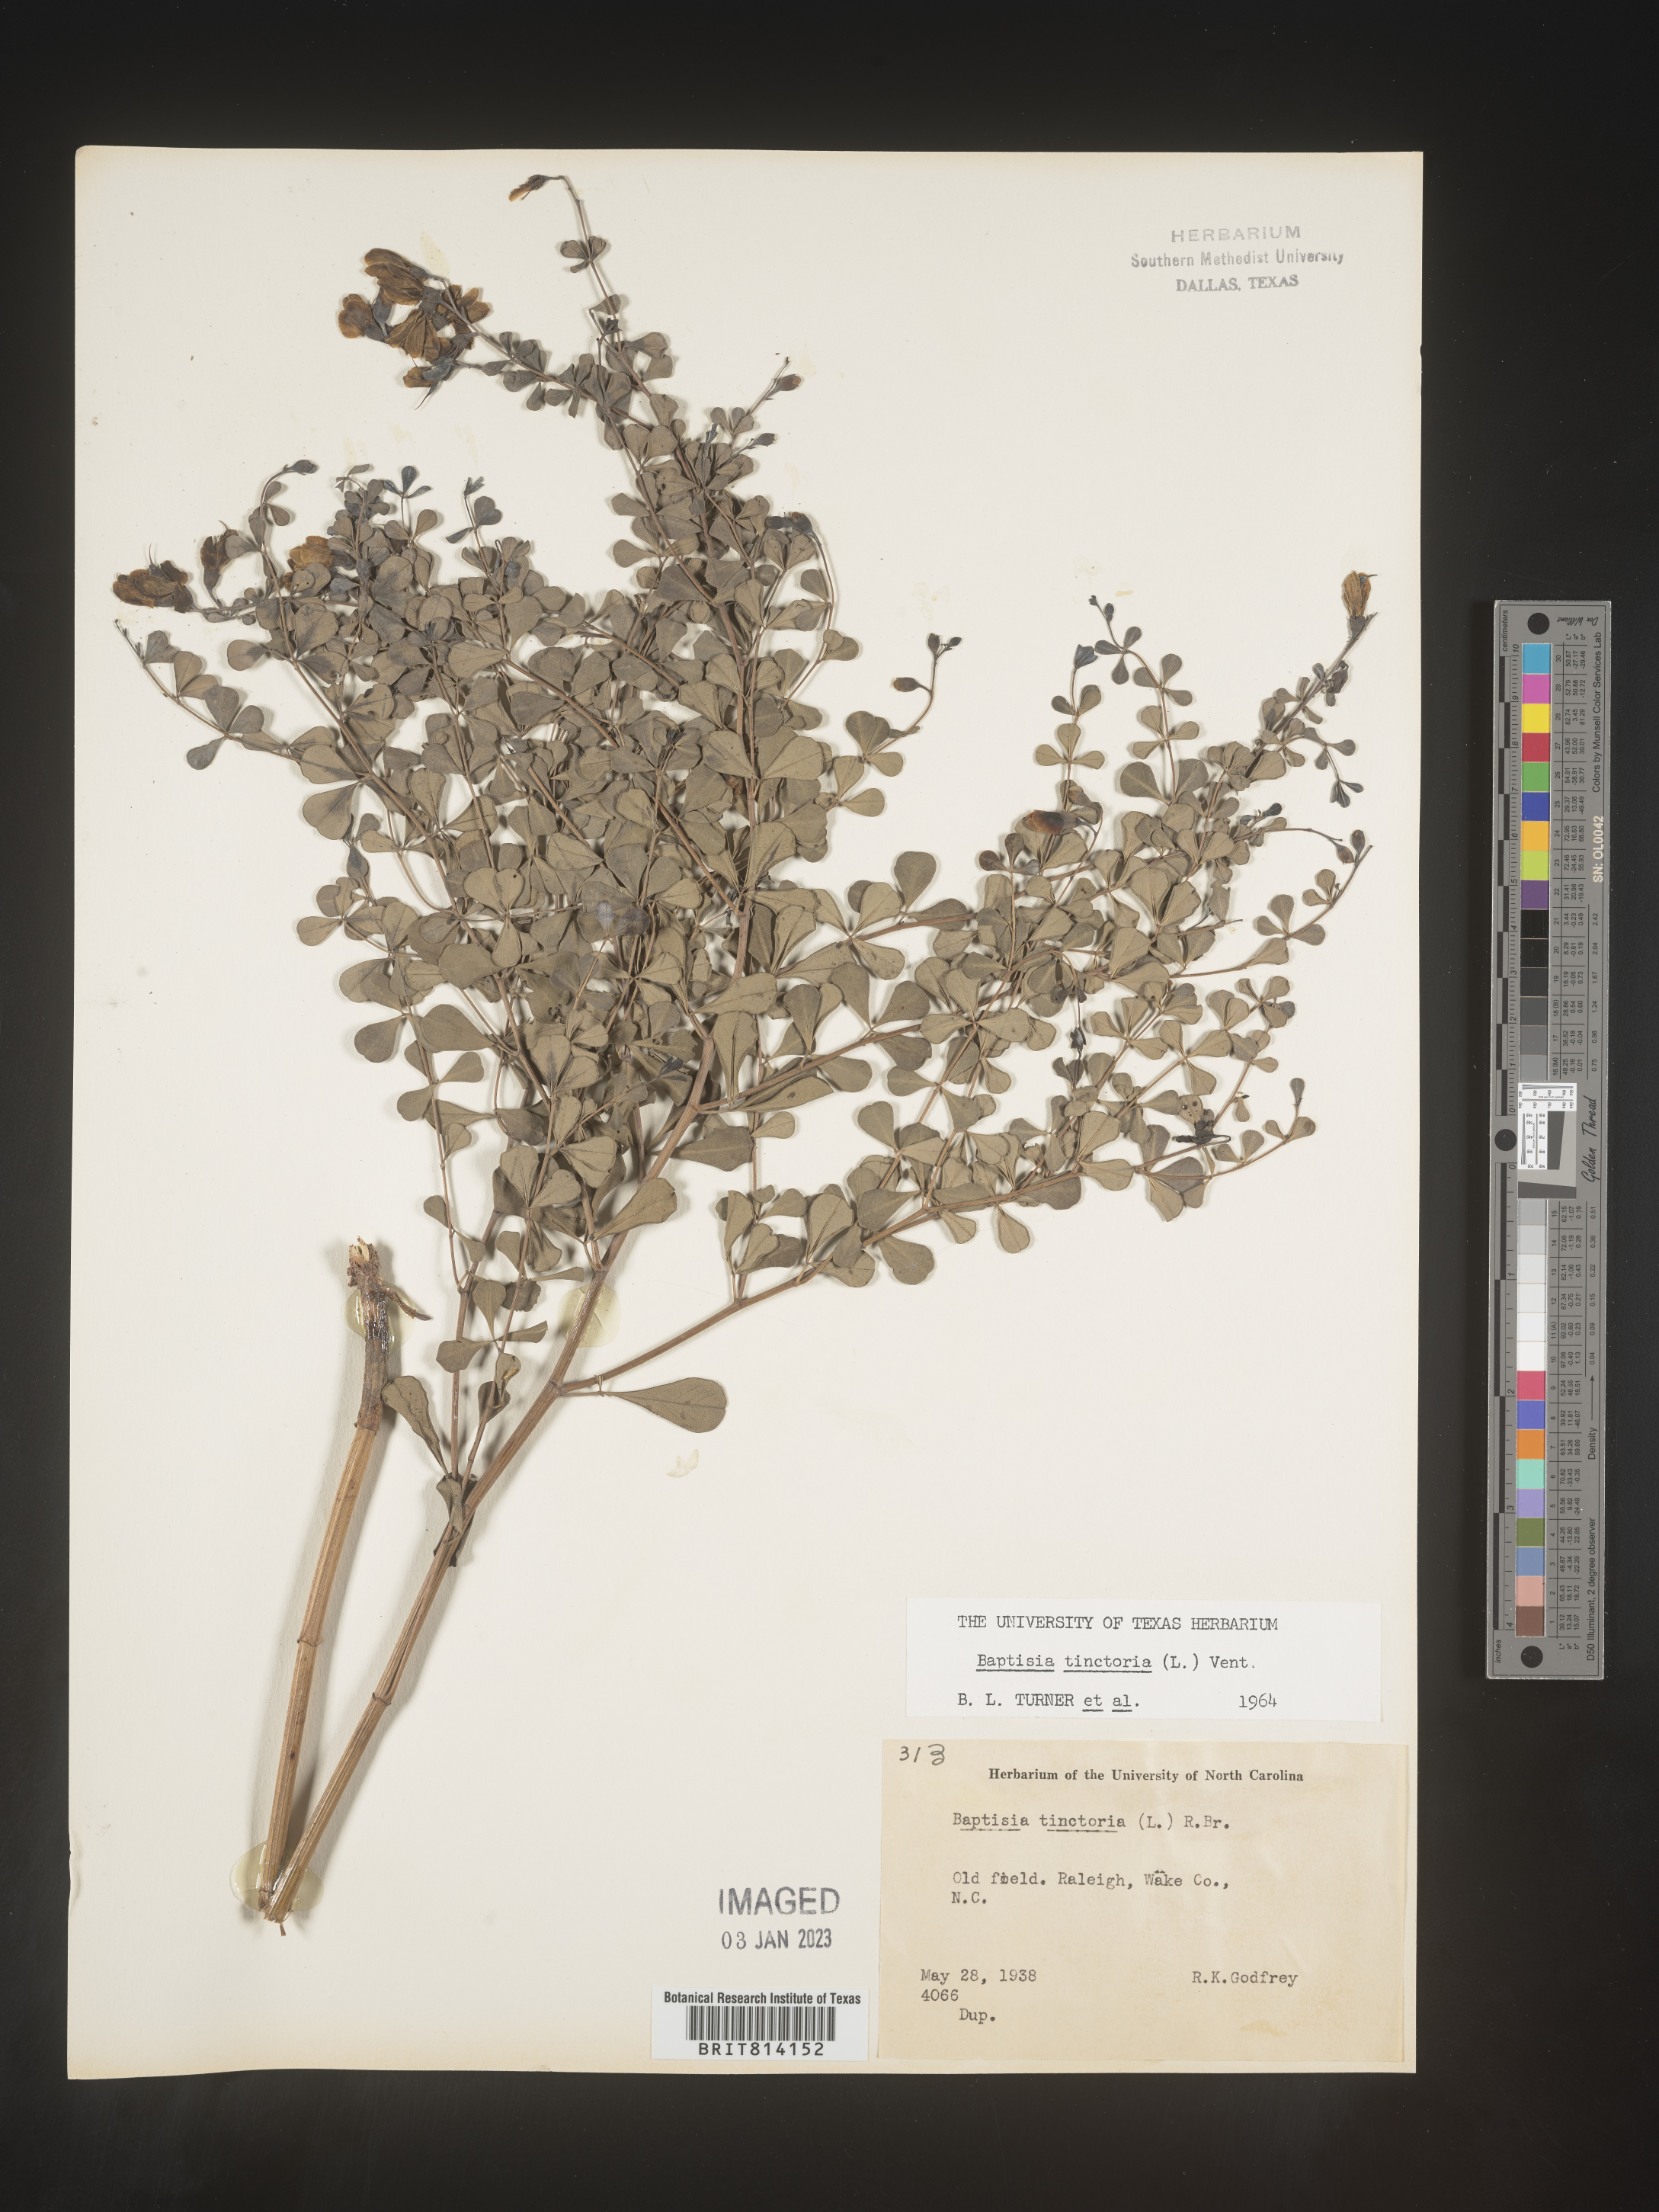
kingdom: Plantae
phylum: Tracheophyta
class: Magnoliopsida
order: Fabales
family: Fabaceae
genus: Baptisia
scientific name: Baptisia tinctoria
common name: Wild indigo
